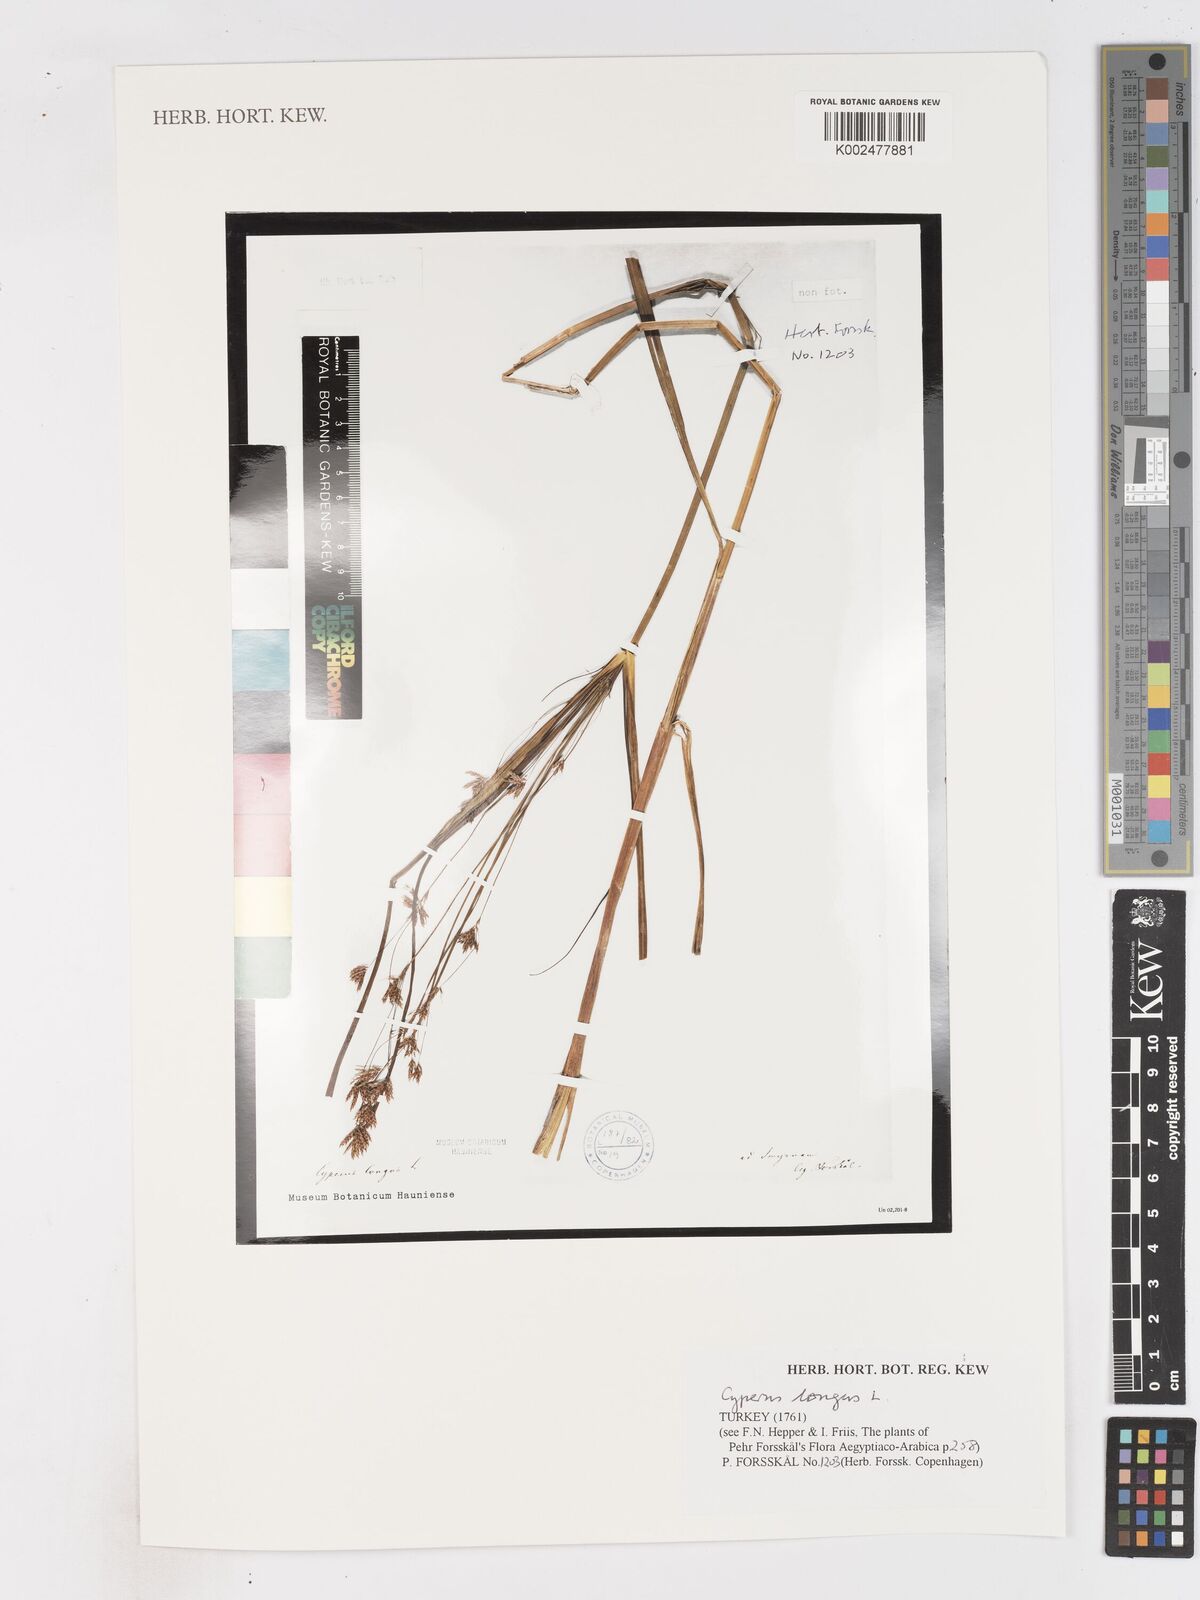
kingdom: Plantae
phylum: Tracheophyta
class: Liliopsida
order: Poales
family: Cyperaceae
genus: Cyperus
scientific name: Cyperus longus
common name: Galingale
